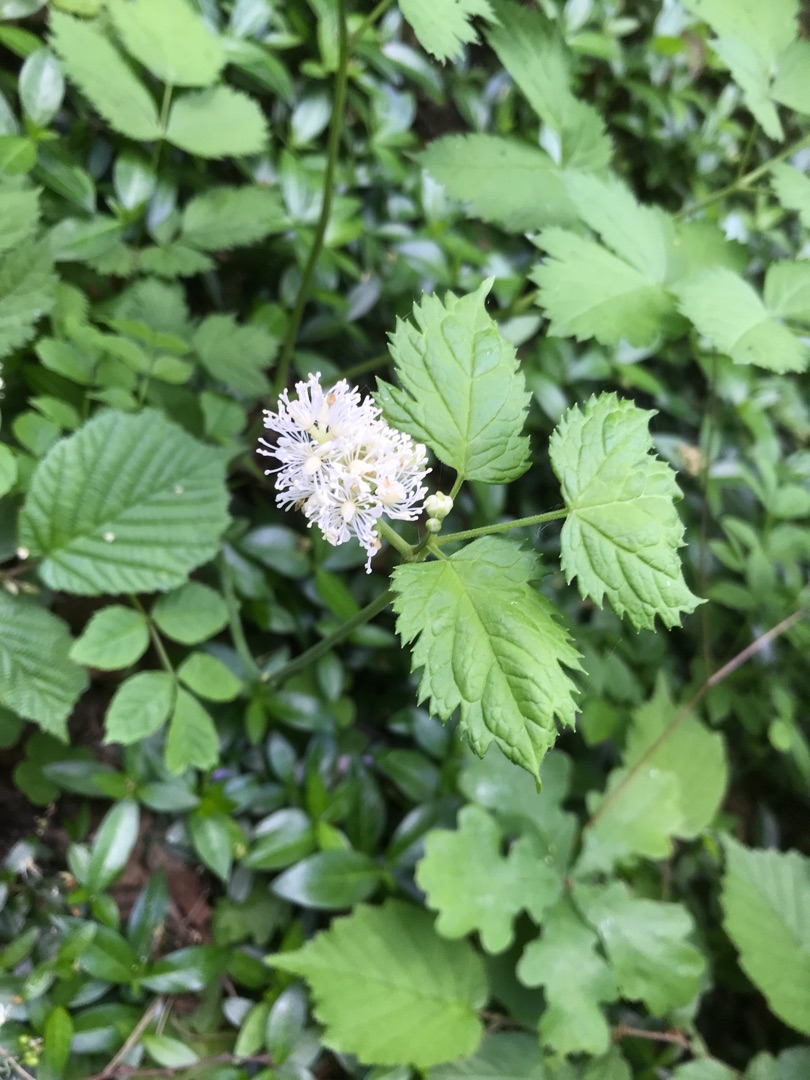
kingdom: Plantae
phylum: Tracheophyta
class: Magnoliopsida
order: Ranunculales
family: Ranunculaceae
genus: Actaea
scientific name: Actaea spicata
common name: Druemunke
